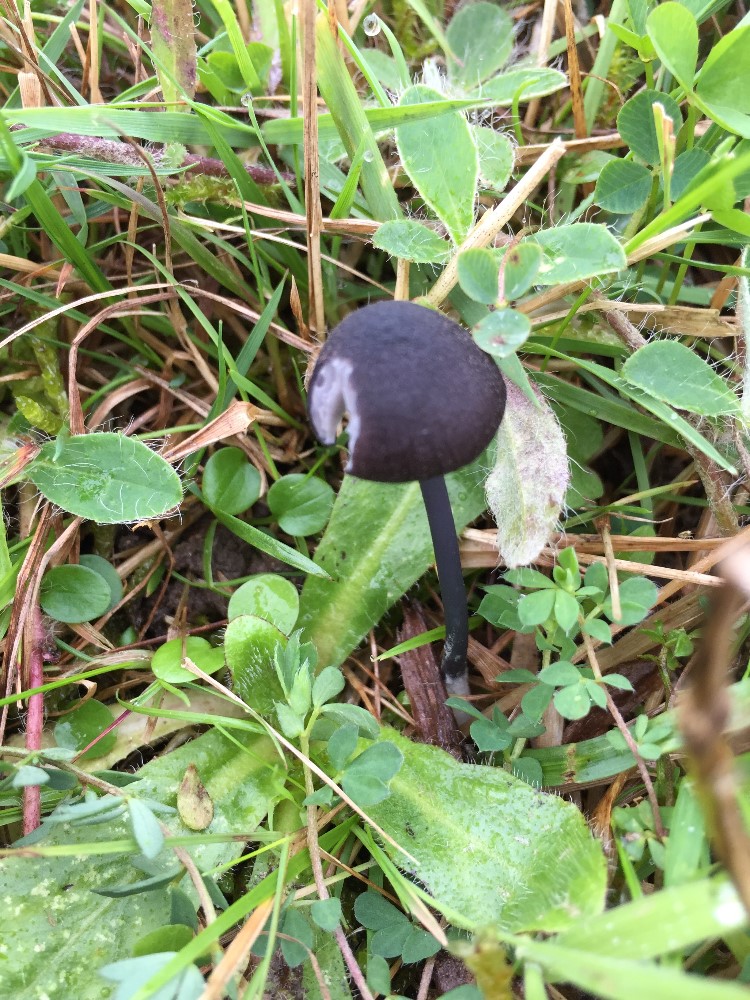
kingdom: Fungi
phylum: Basidiomycota
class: Agaricomycetes
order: Agaricales
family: Entolomataceae
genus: Entoloma
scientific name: Entoloma chalybeum
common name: blåbladet rødblad
